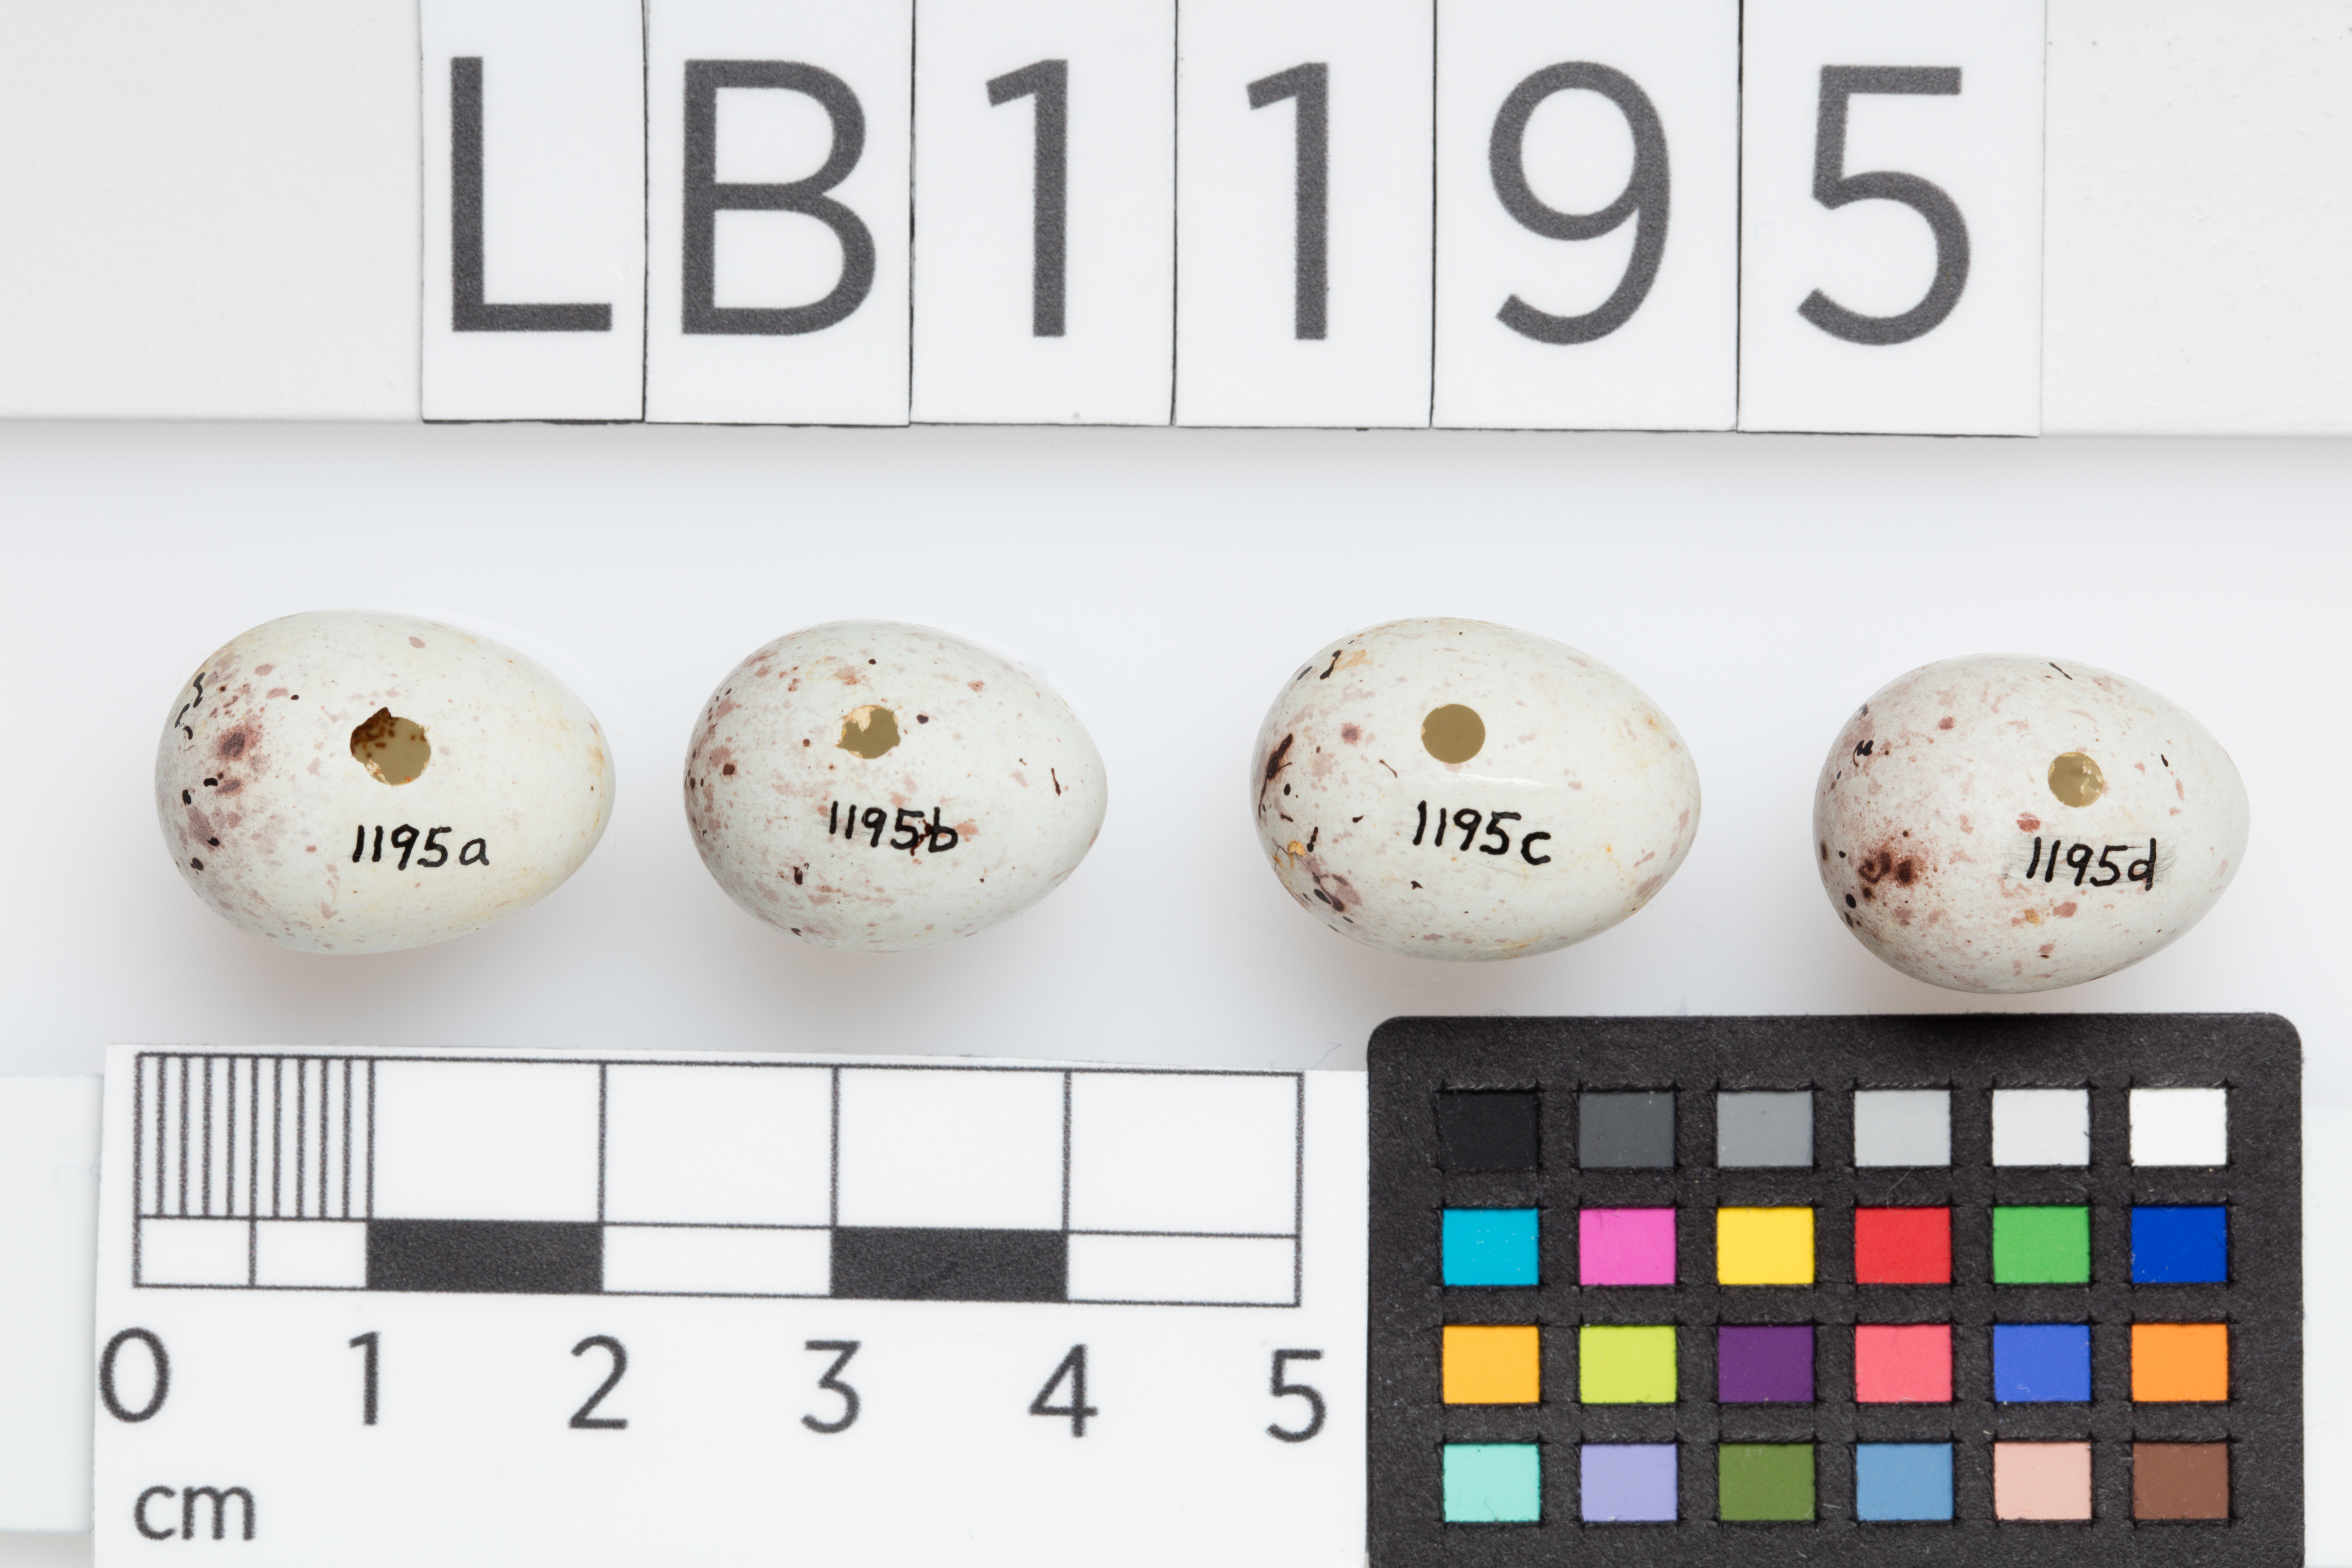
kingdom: Animalia
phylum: Chordata
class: Aves
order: Passeriformes
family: Fringillidae
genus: Serinus
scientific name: Serinus canaria
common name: Atlantic canary
